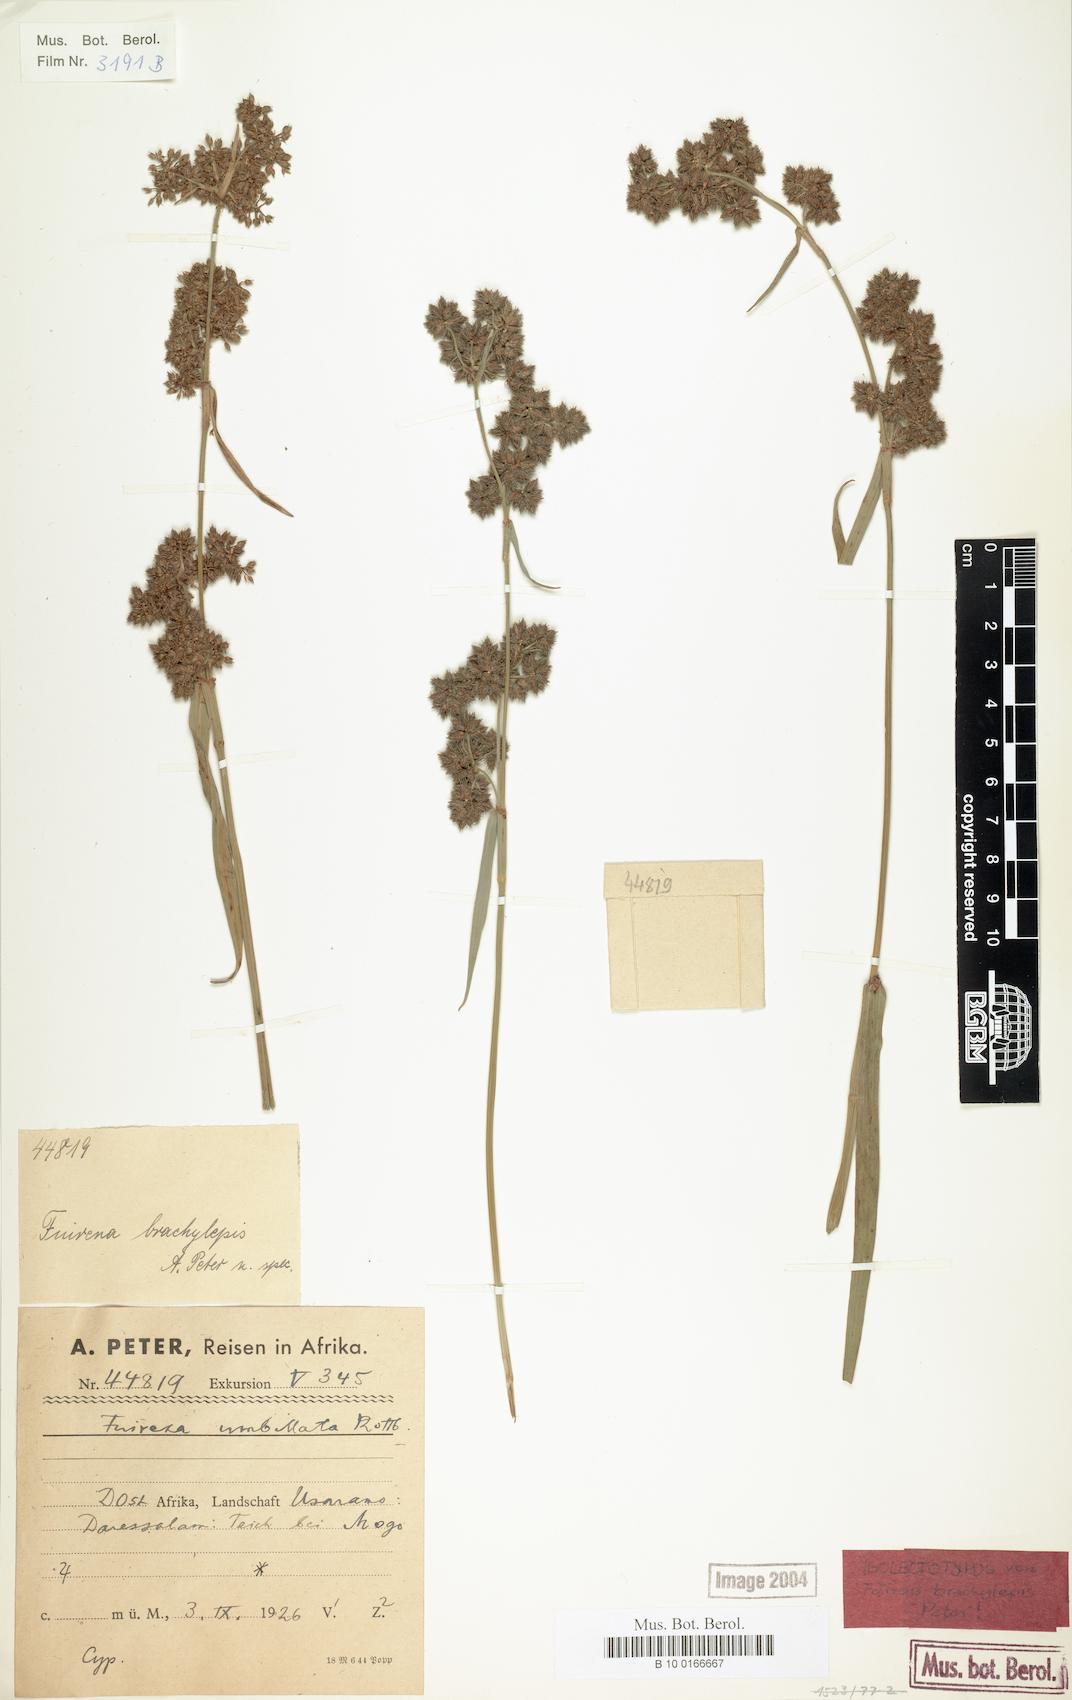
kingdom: Plantae
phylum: Tracheophyta
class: Liliopsida
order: Poales
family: Cyperaceae
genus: Fuirena
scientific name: Fuirena umbellata
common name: Yefen
